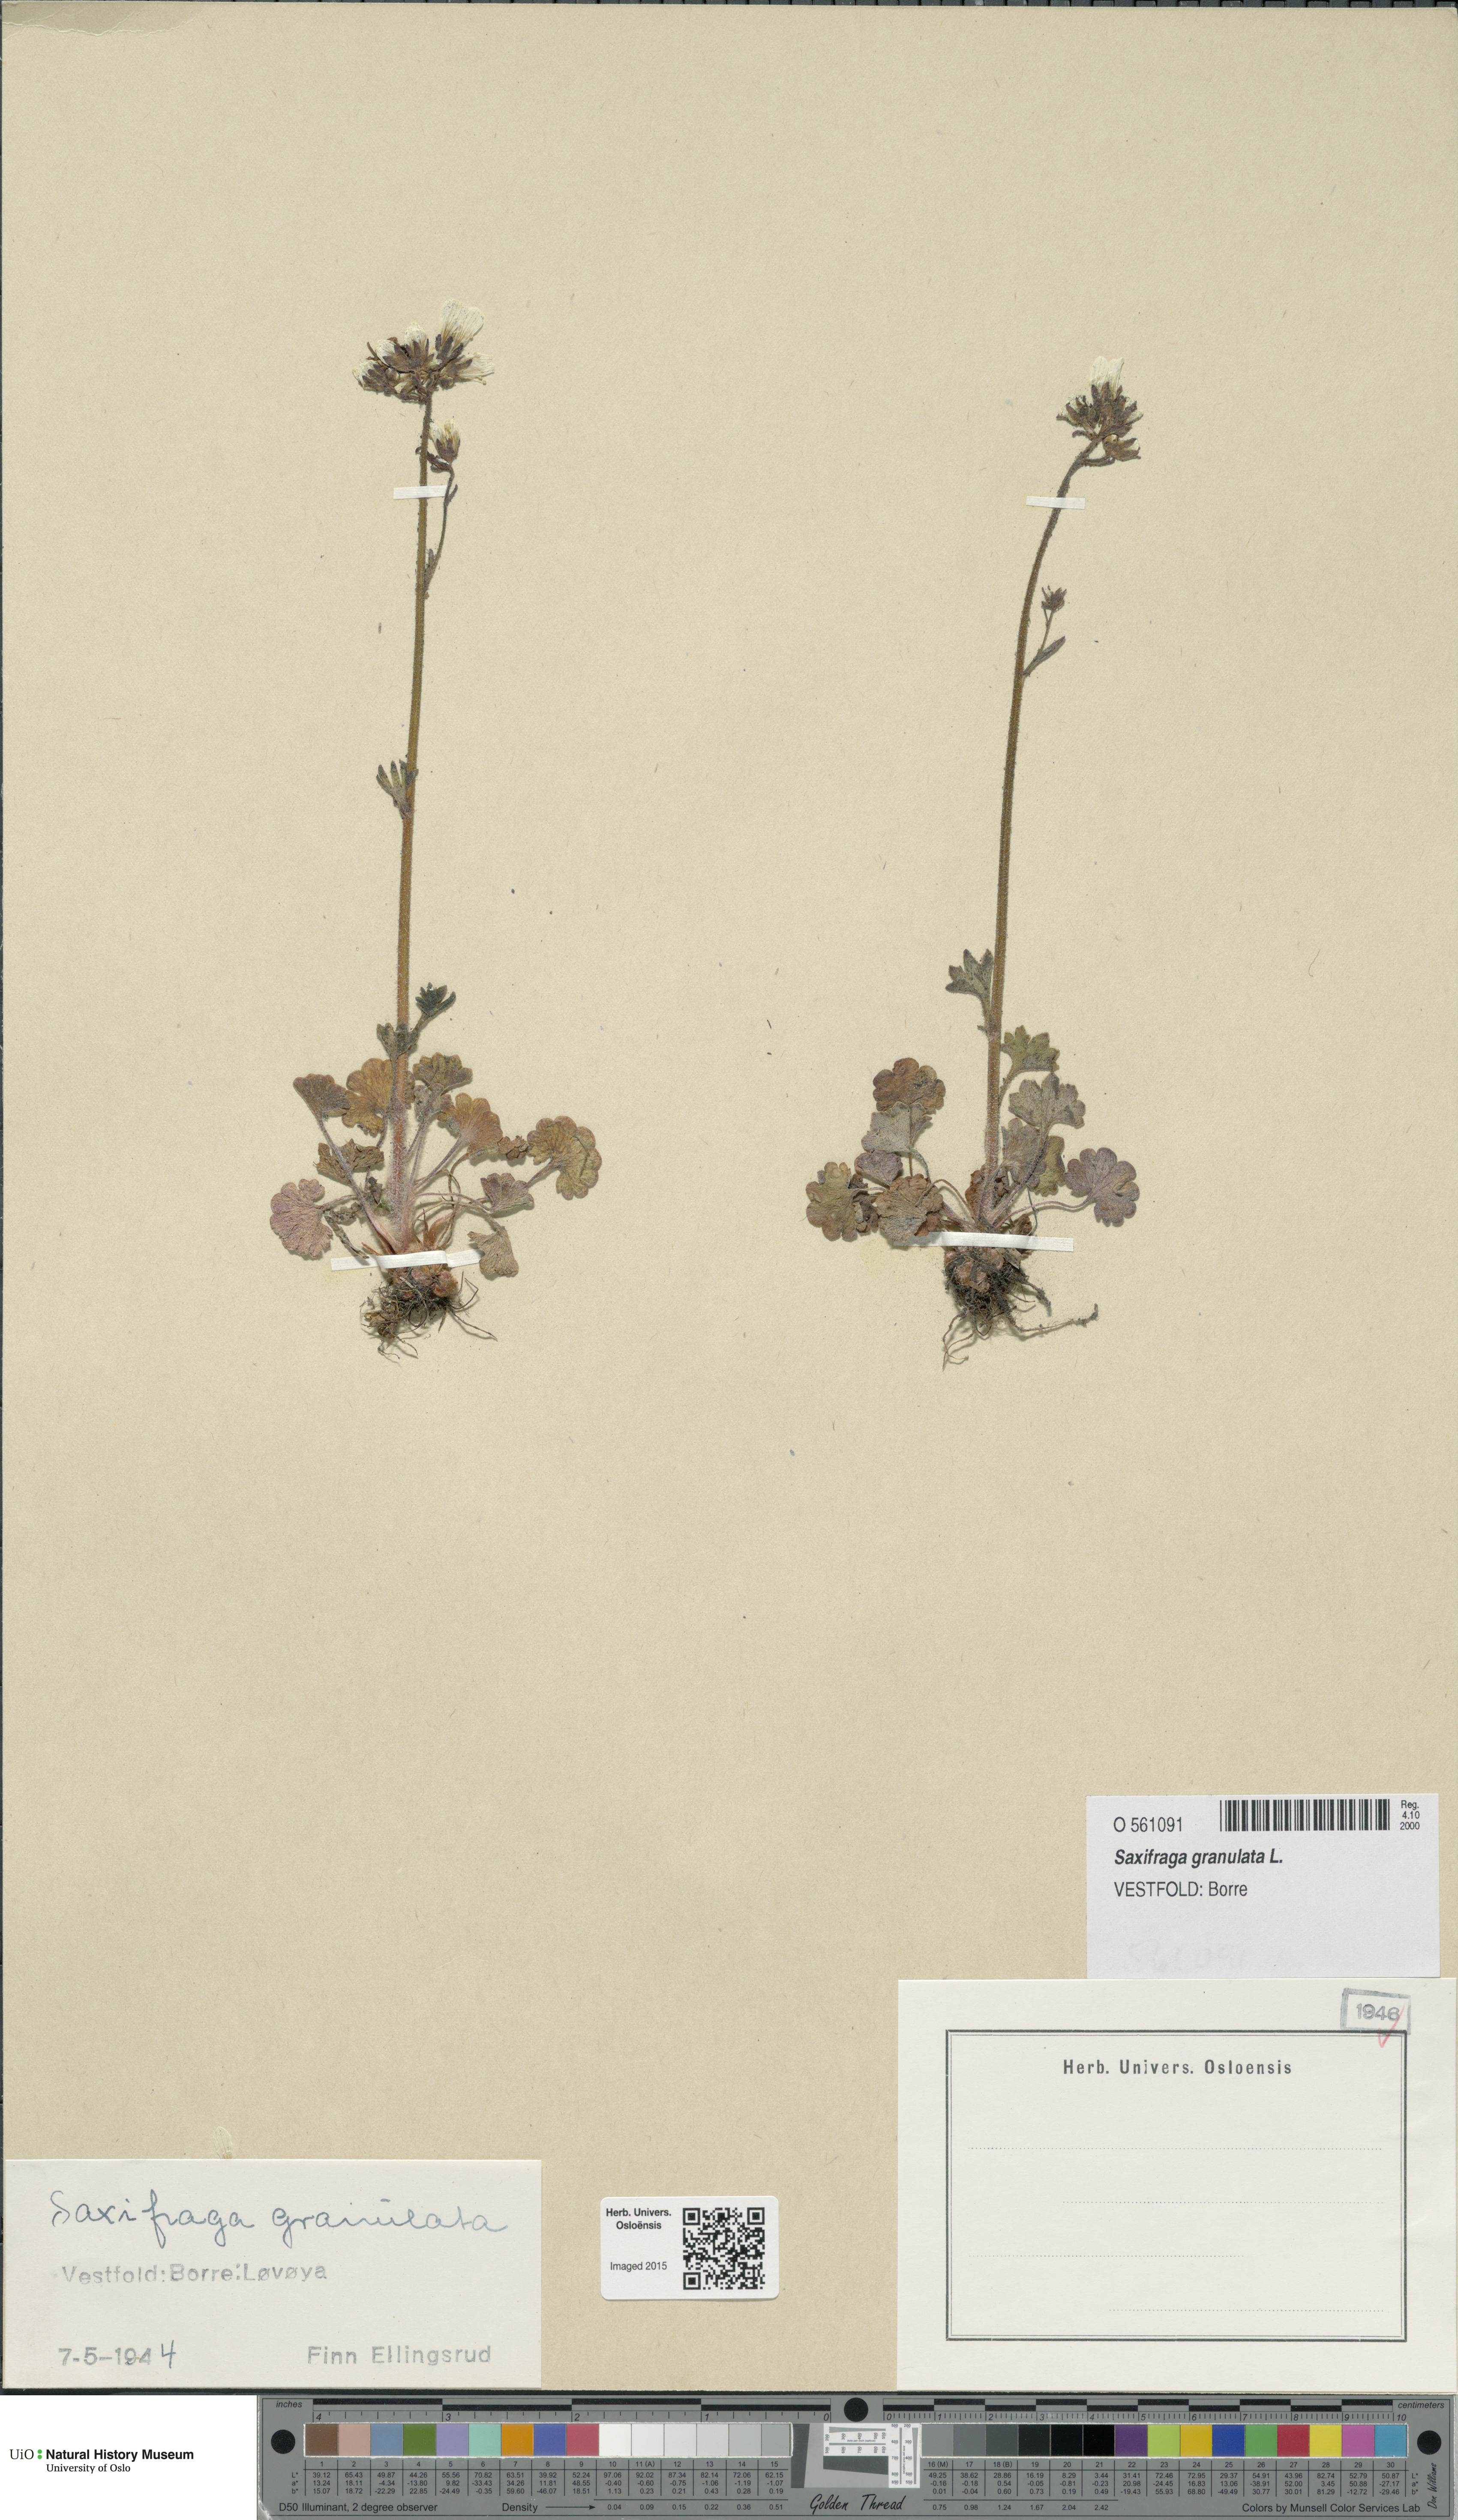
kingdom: Plantae
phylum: Tracheophyta
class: Magnoliopsida
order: Saxifragales
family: Saxifragaceae
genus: Saxifraga
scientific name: Saxifraga granulata
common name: Meadow saxifrage
